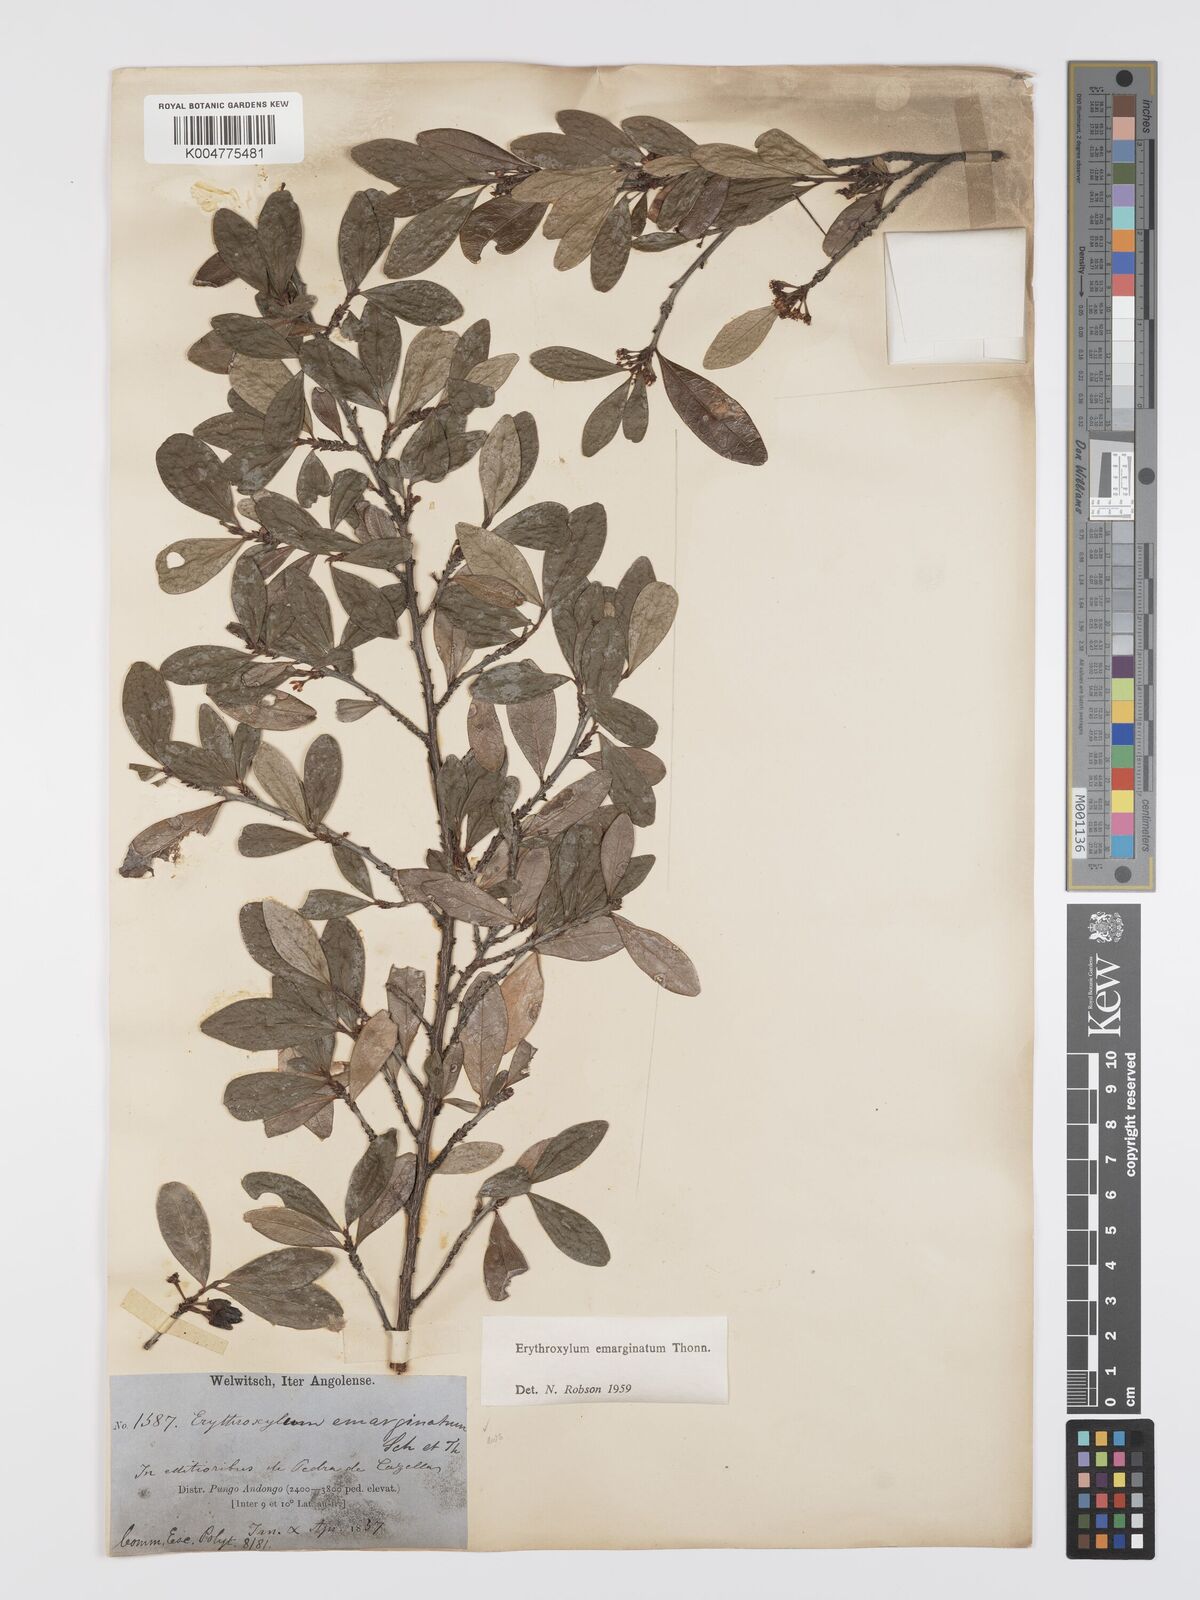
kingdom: Plantae
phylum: Tracheophyta
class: Magnoliopsida
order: Malpighiales
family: Erythroxylaceae
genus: Erythroxylum
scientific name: Erythroxylum emarginatum
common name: African coca-tree
